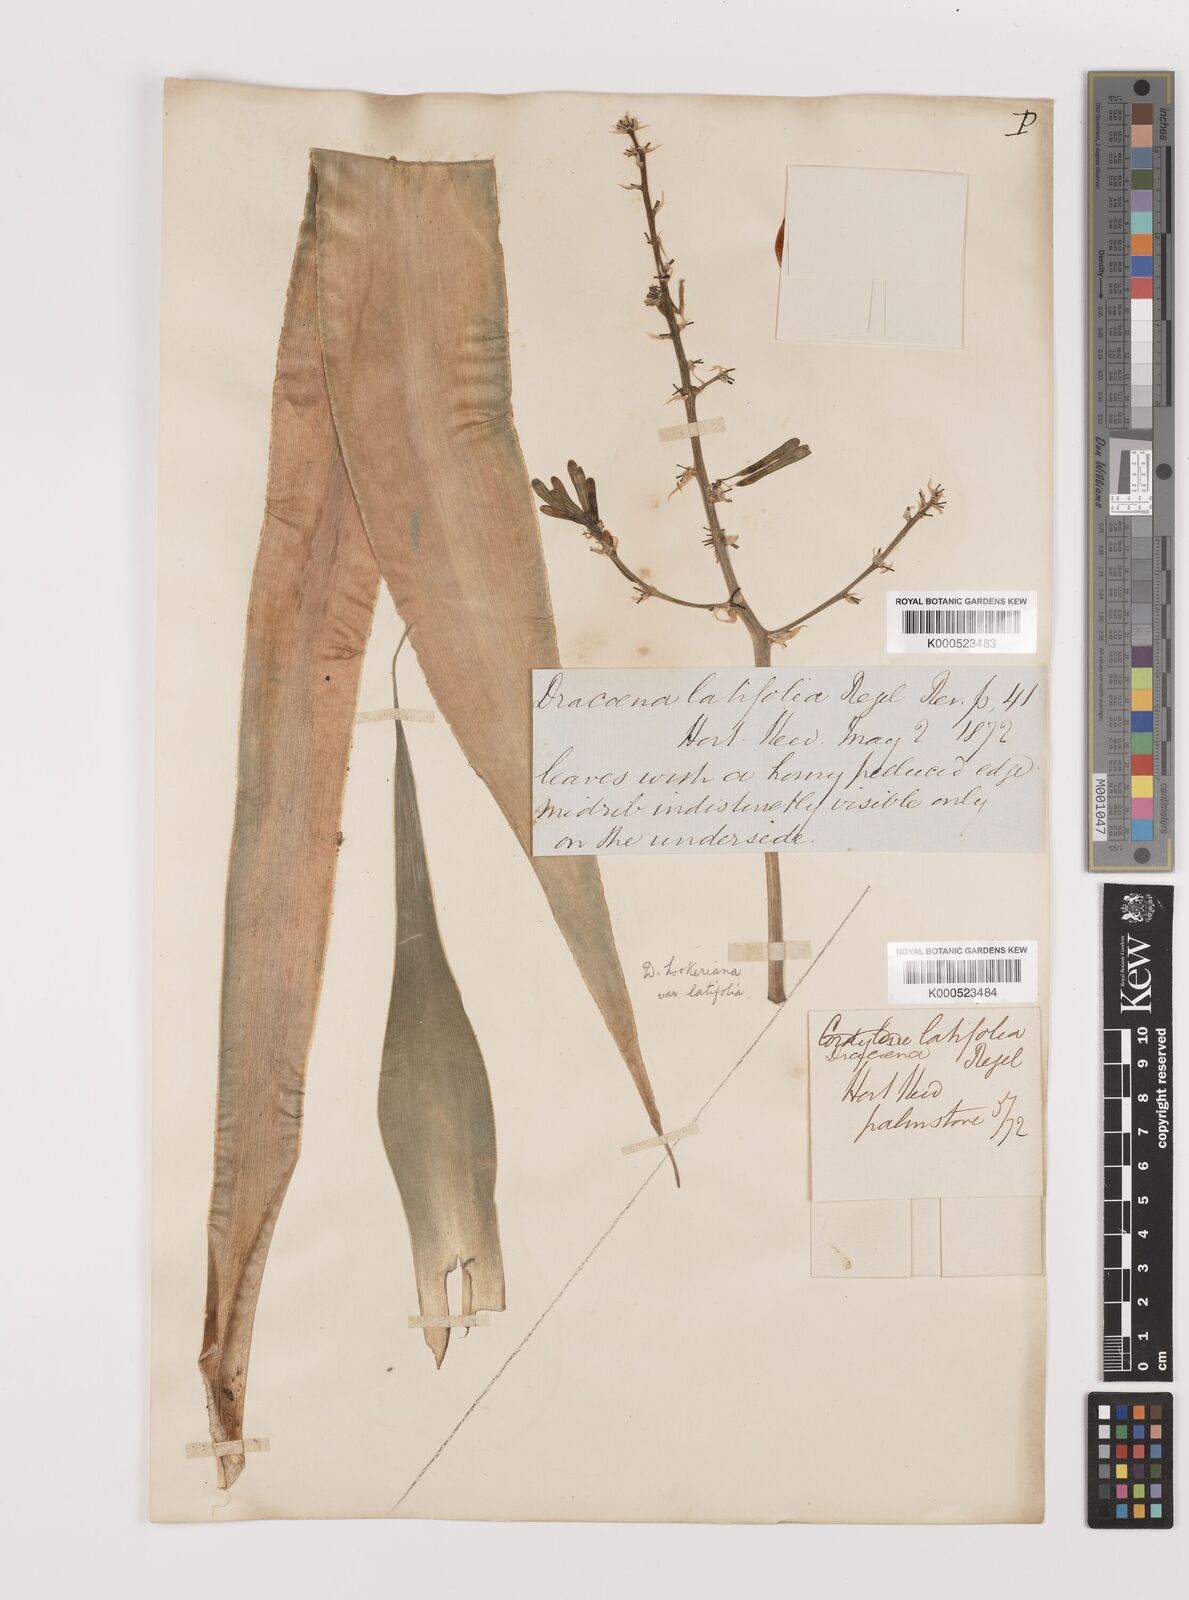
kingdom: Plantae
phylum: Tracheophyta
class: Liliopsida
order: Asparagales
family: Asparagaceae
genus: Dracaena
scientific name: Dracaena aletriformis
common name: Large-leaved dragon tree
